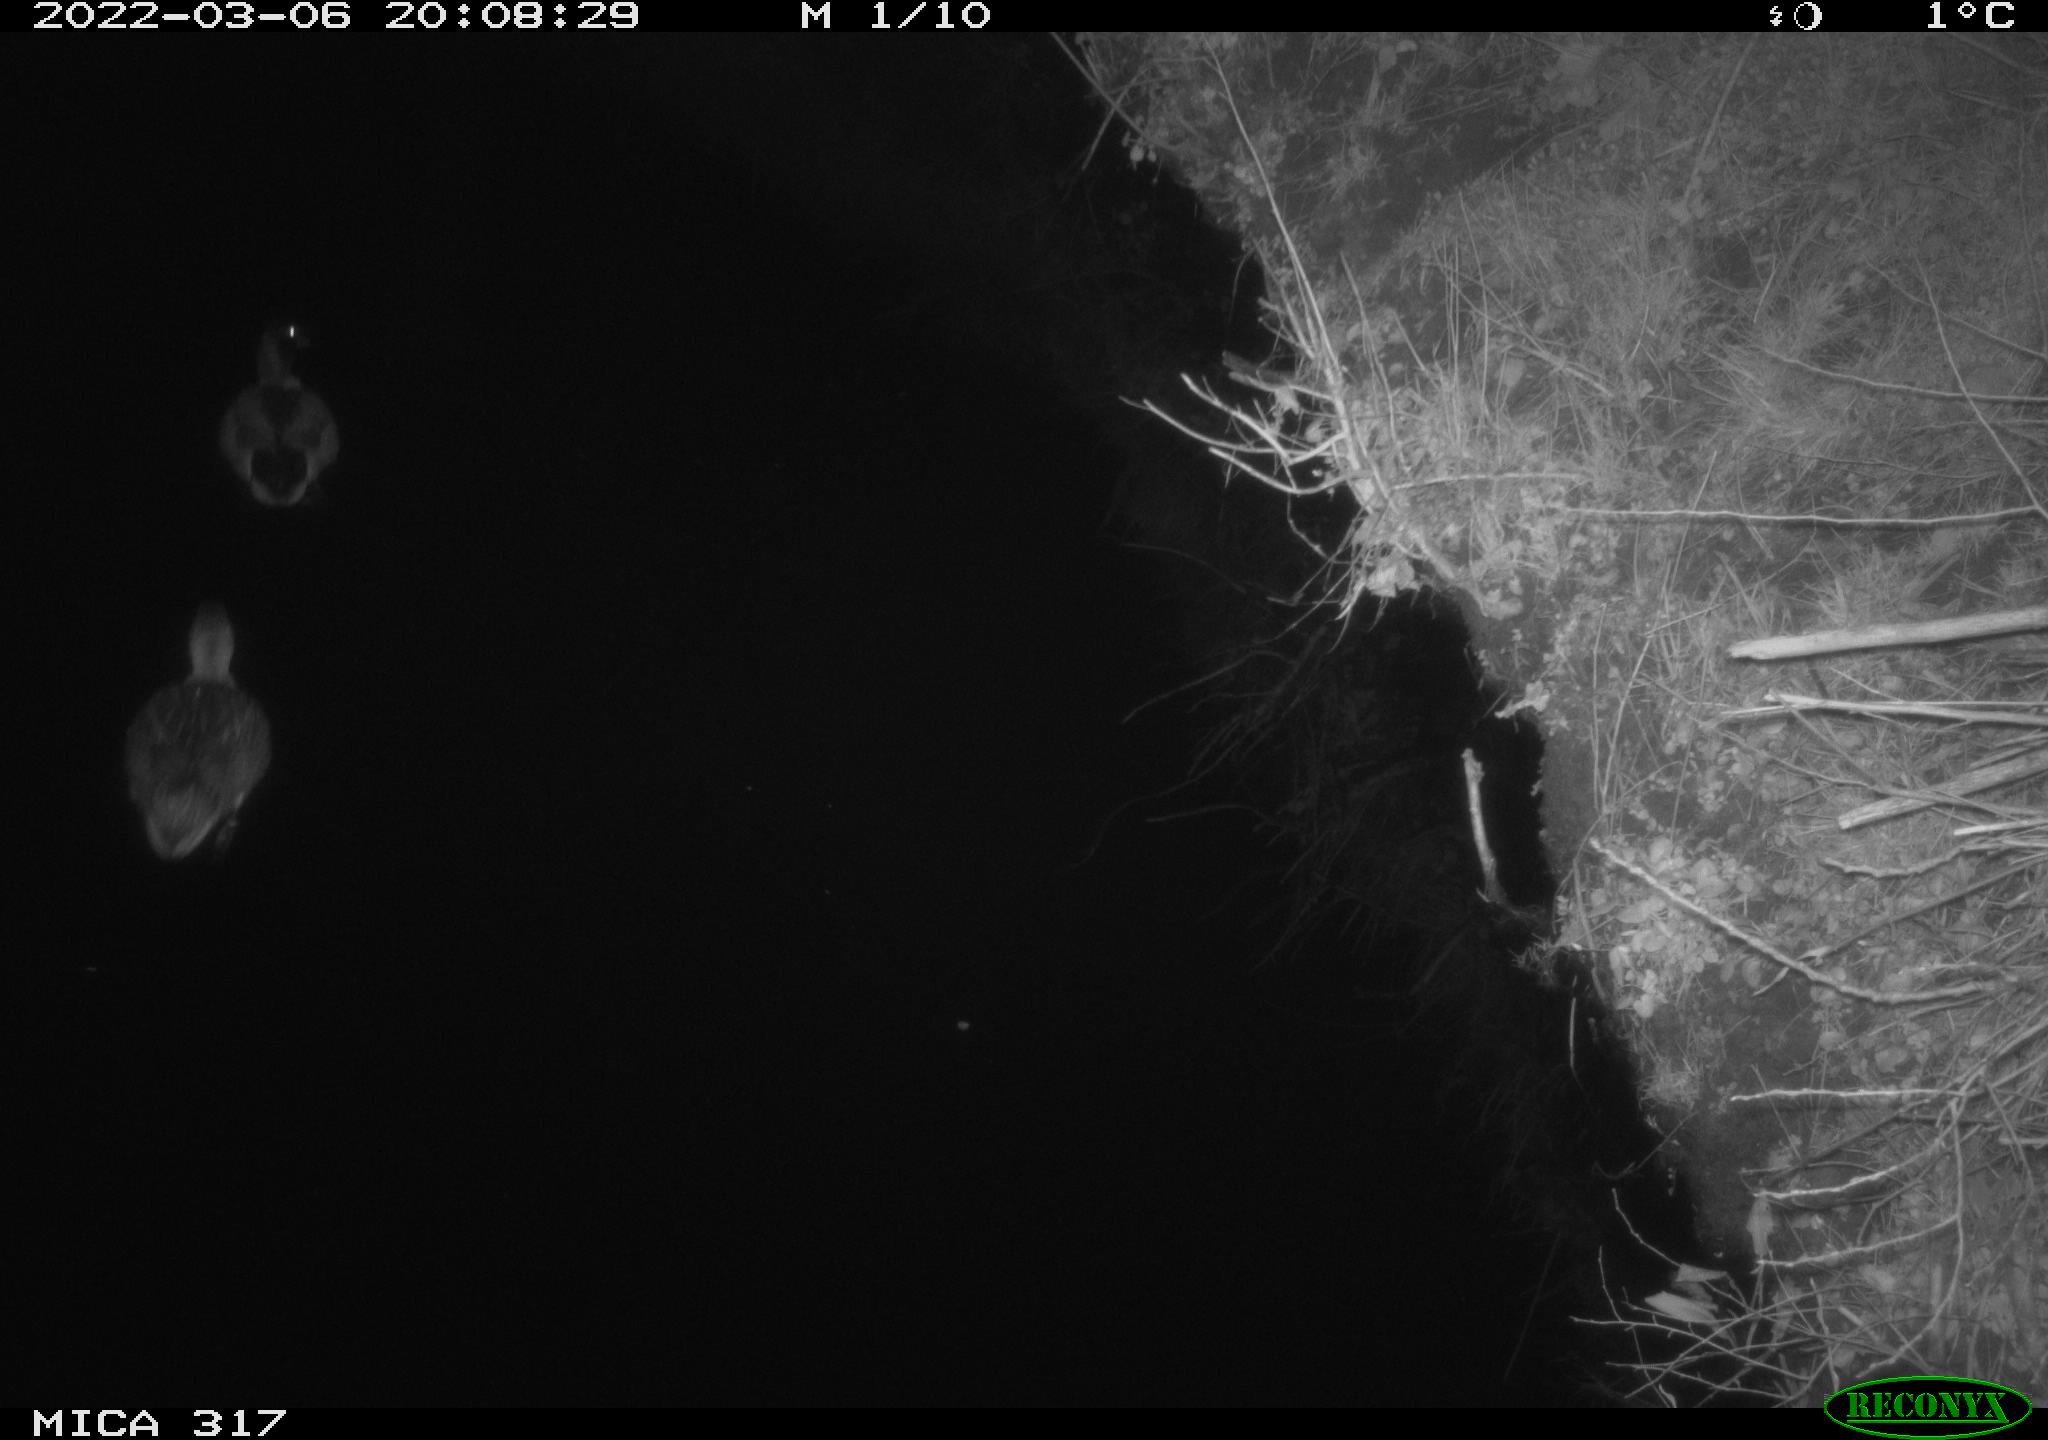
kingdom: Animalia
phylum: Chordata
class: Aves
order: Anseriformes
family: Anatidae
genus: Anas
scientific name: Anas platyrhynchos
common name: Mallard
